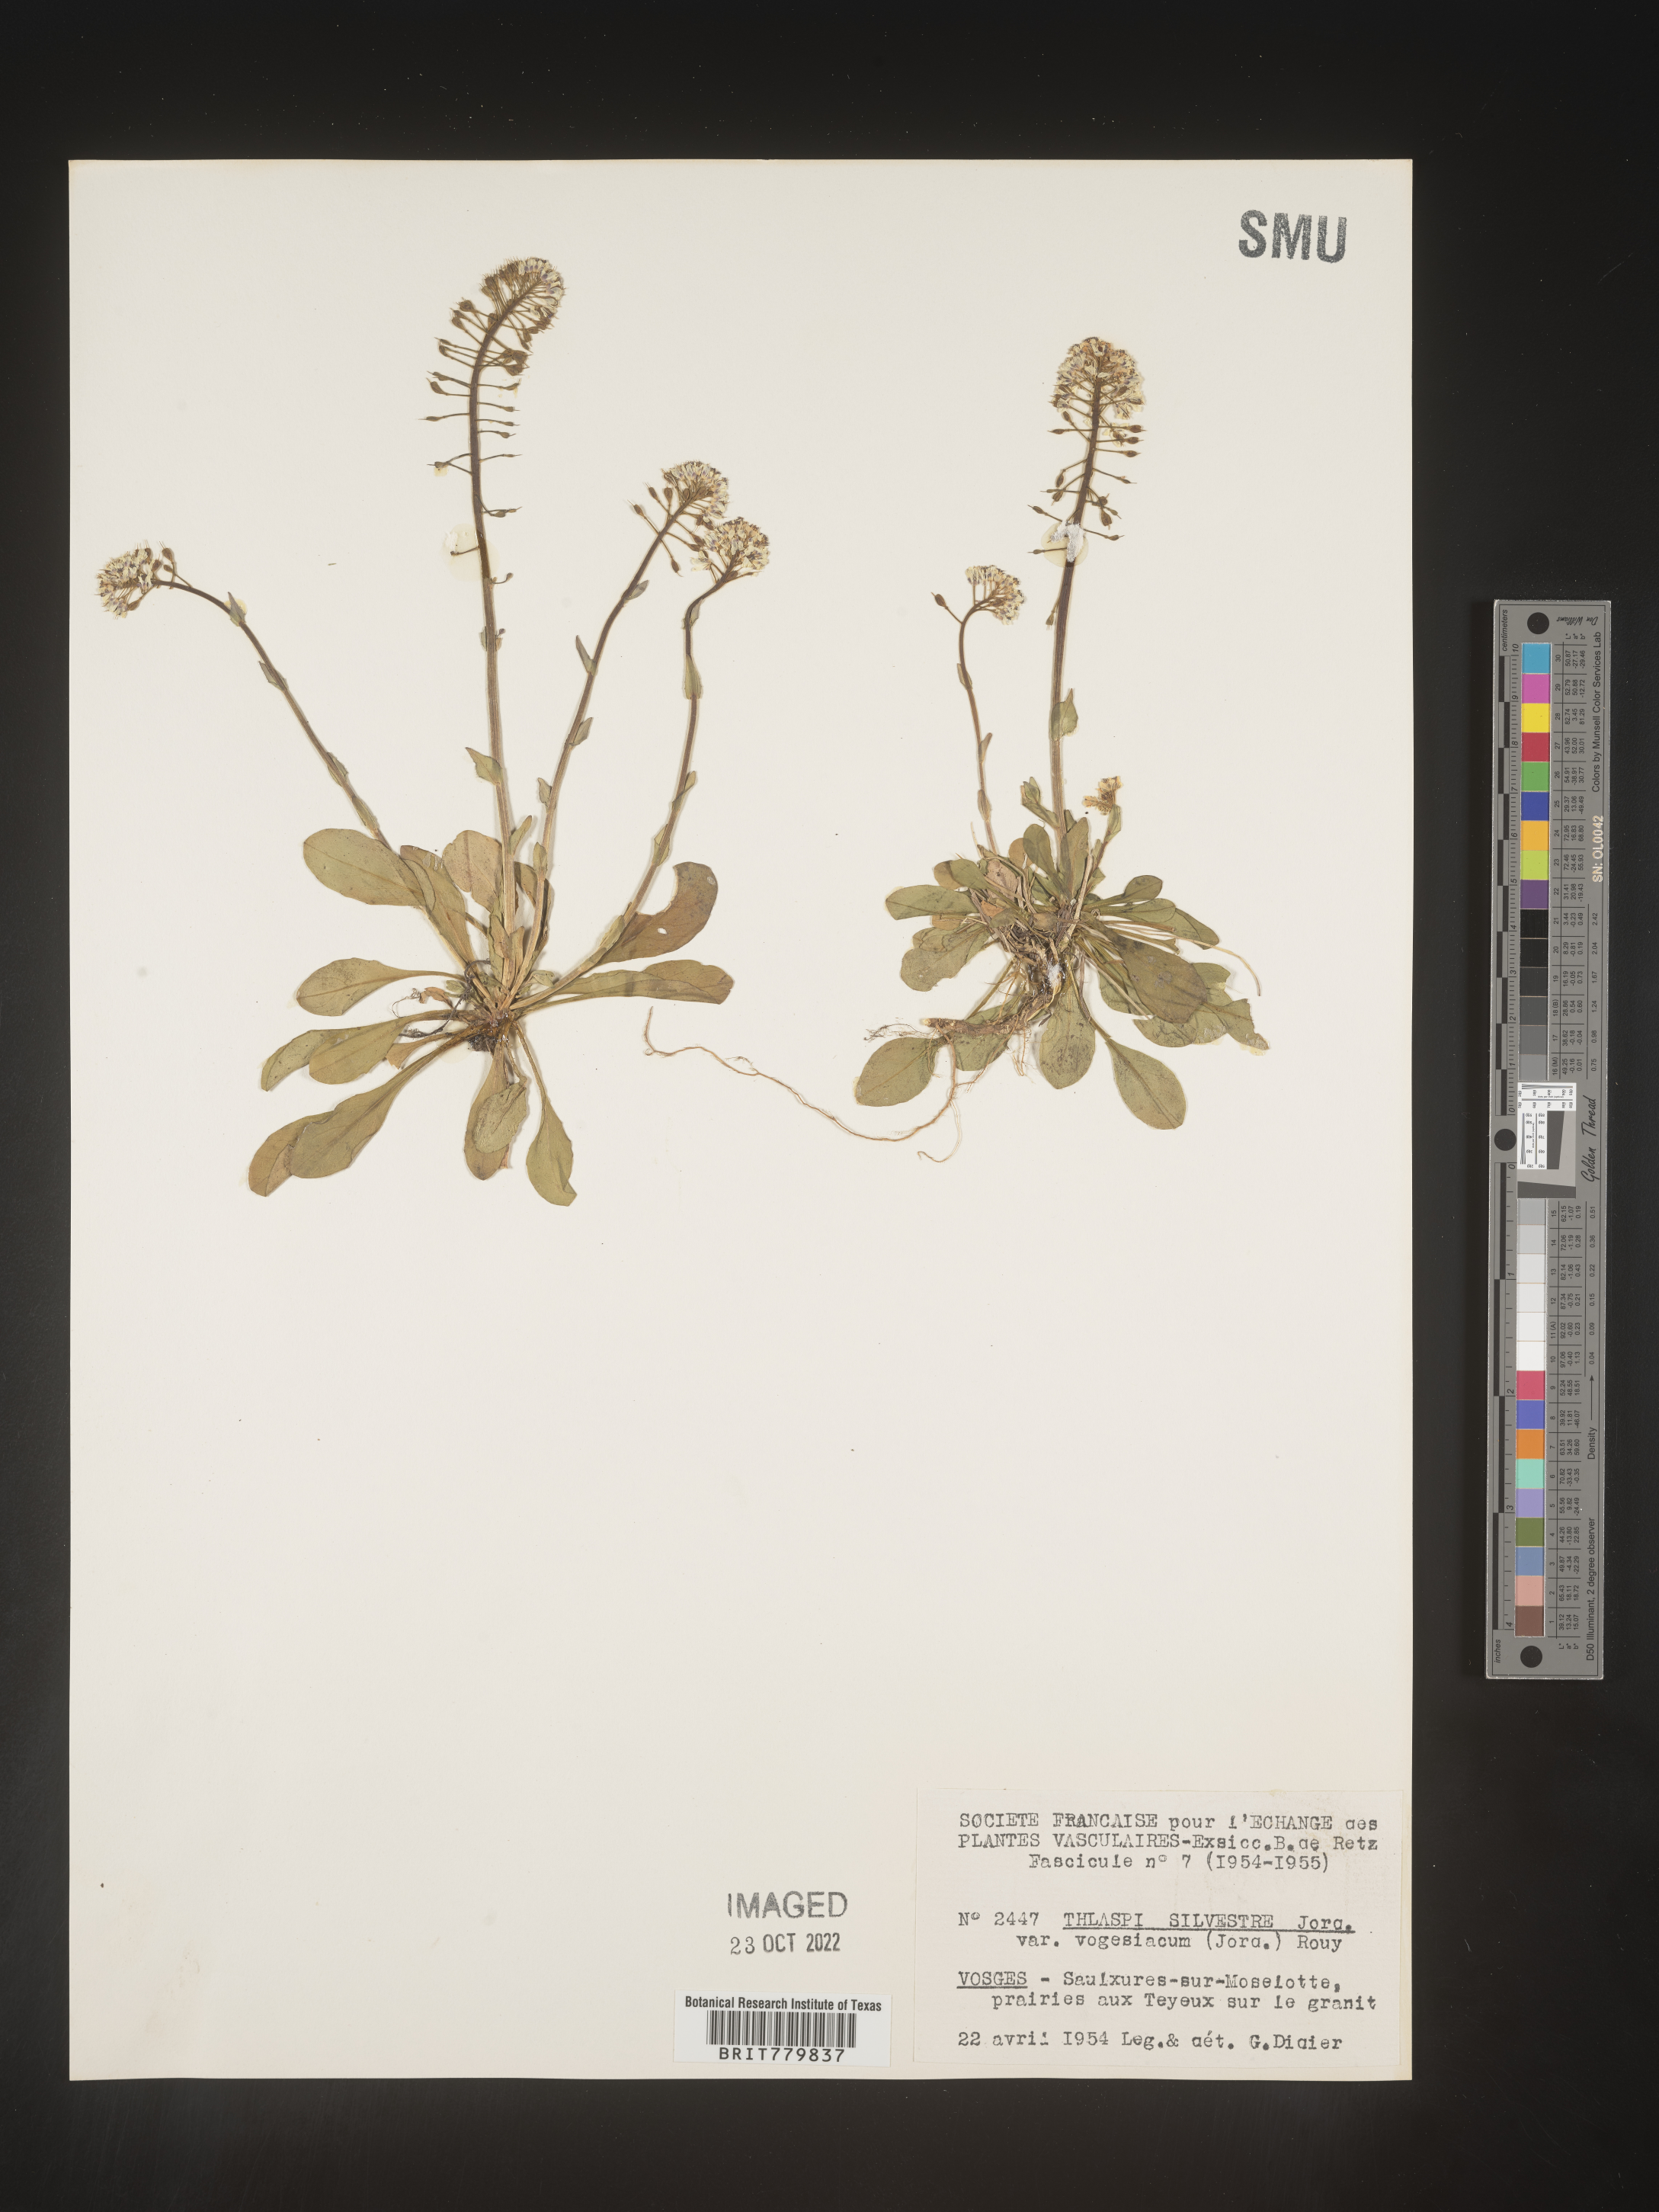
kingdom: Plantae
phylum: Tracheophyta
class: Magnoliopsida
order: Brassicales
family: Brassicaceae
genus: Thlaspi
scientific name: Thlaspi
